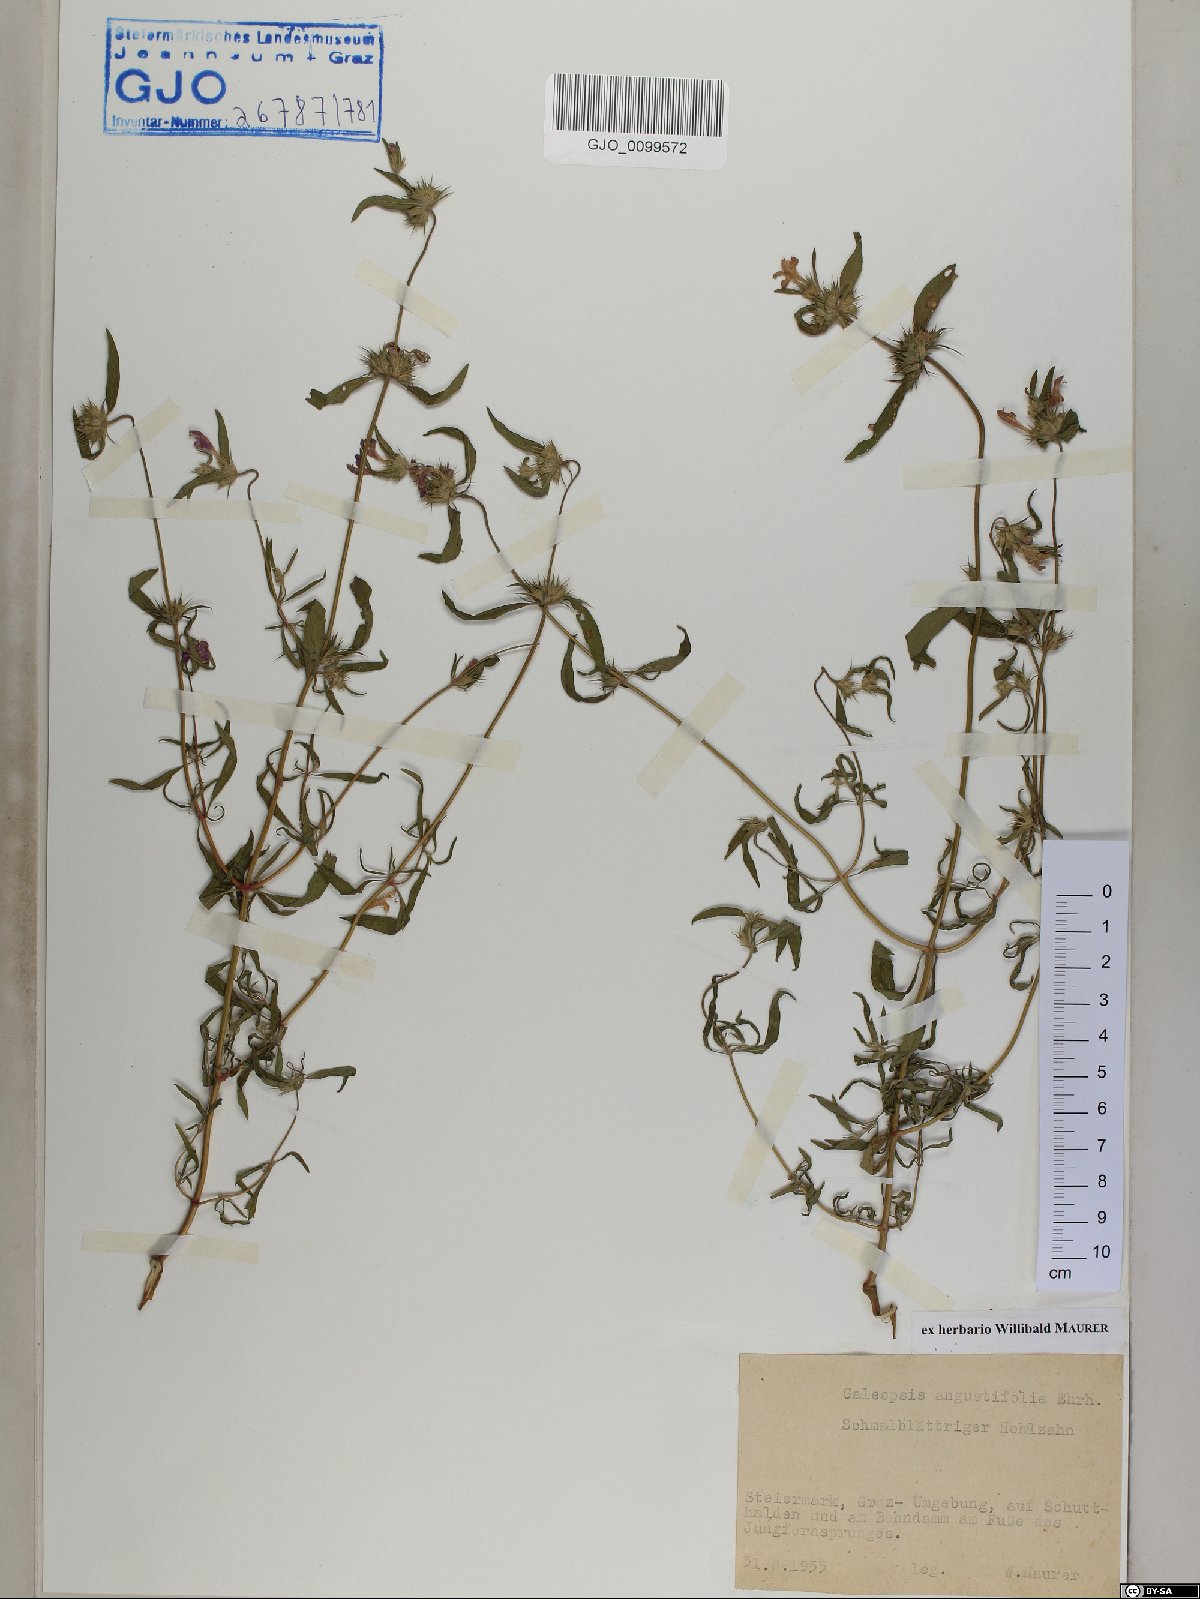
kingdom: Plantae
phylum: Tracheophyta
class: Magnoliopsida
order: Lamiales
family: Lamiaceae
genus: Galeopsis
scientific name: Galeopsis angustifolia
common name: Red hemp-nettle
